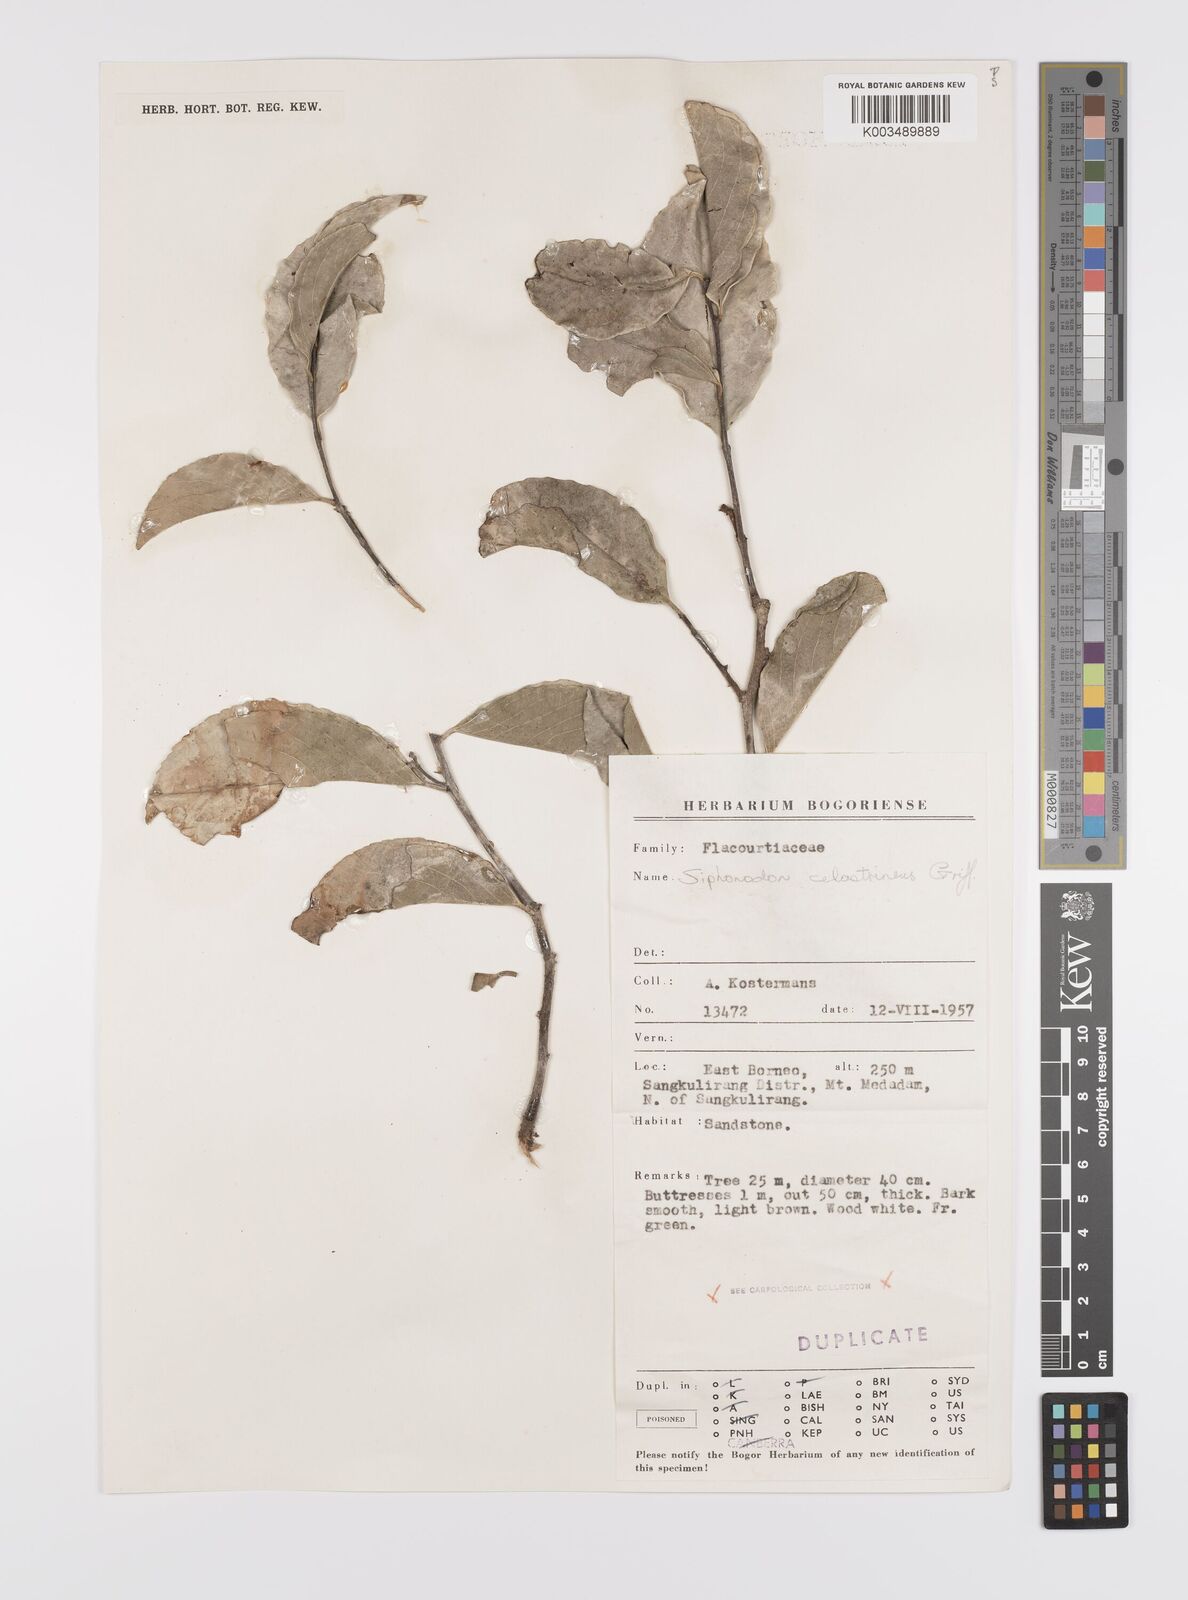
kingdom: Plantae
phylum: Tracheophyta
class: Magnoliopsida
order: Celastrales
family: Celastraceae
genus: Siphonodon
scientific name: Siphonodon celastrineus
